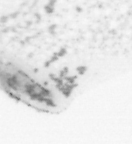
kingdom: Animalia
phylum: Chordata
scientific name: Chordata
